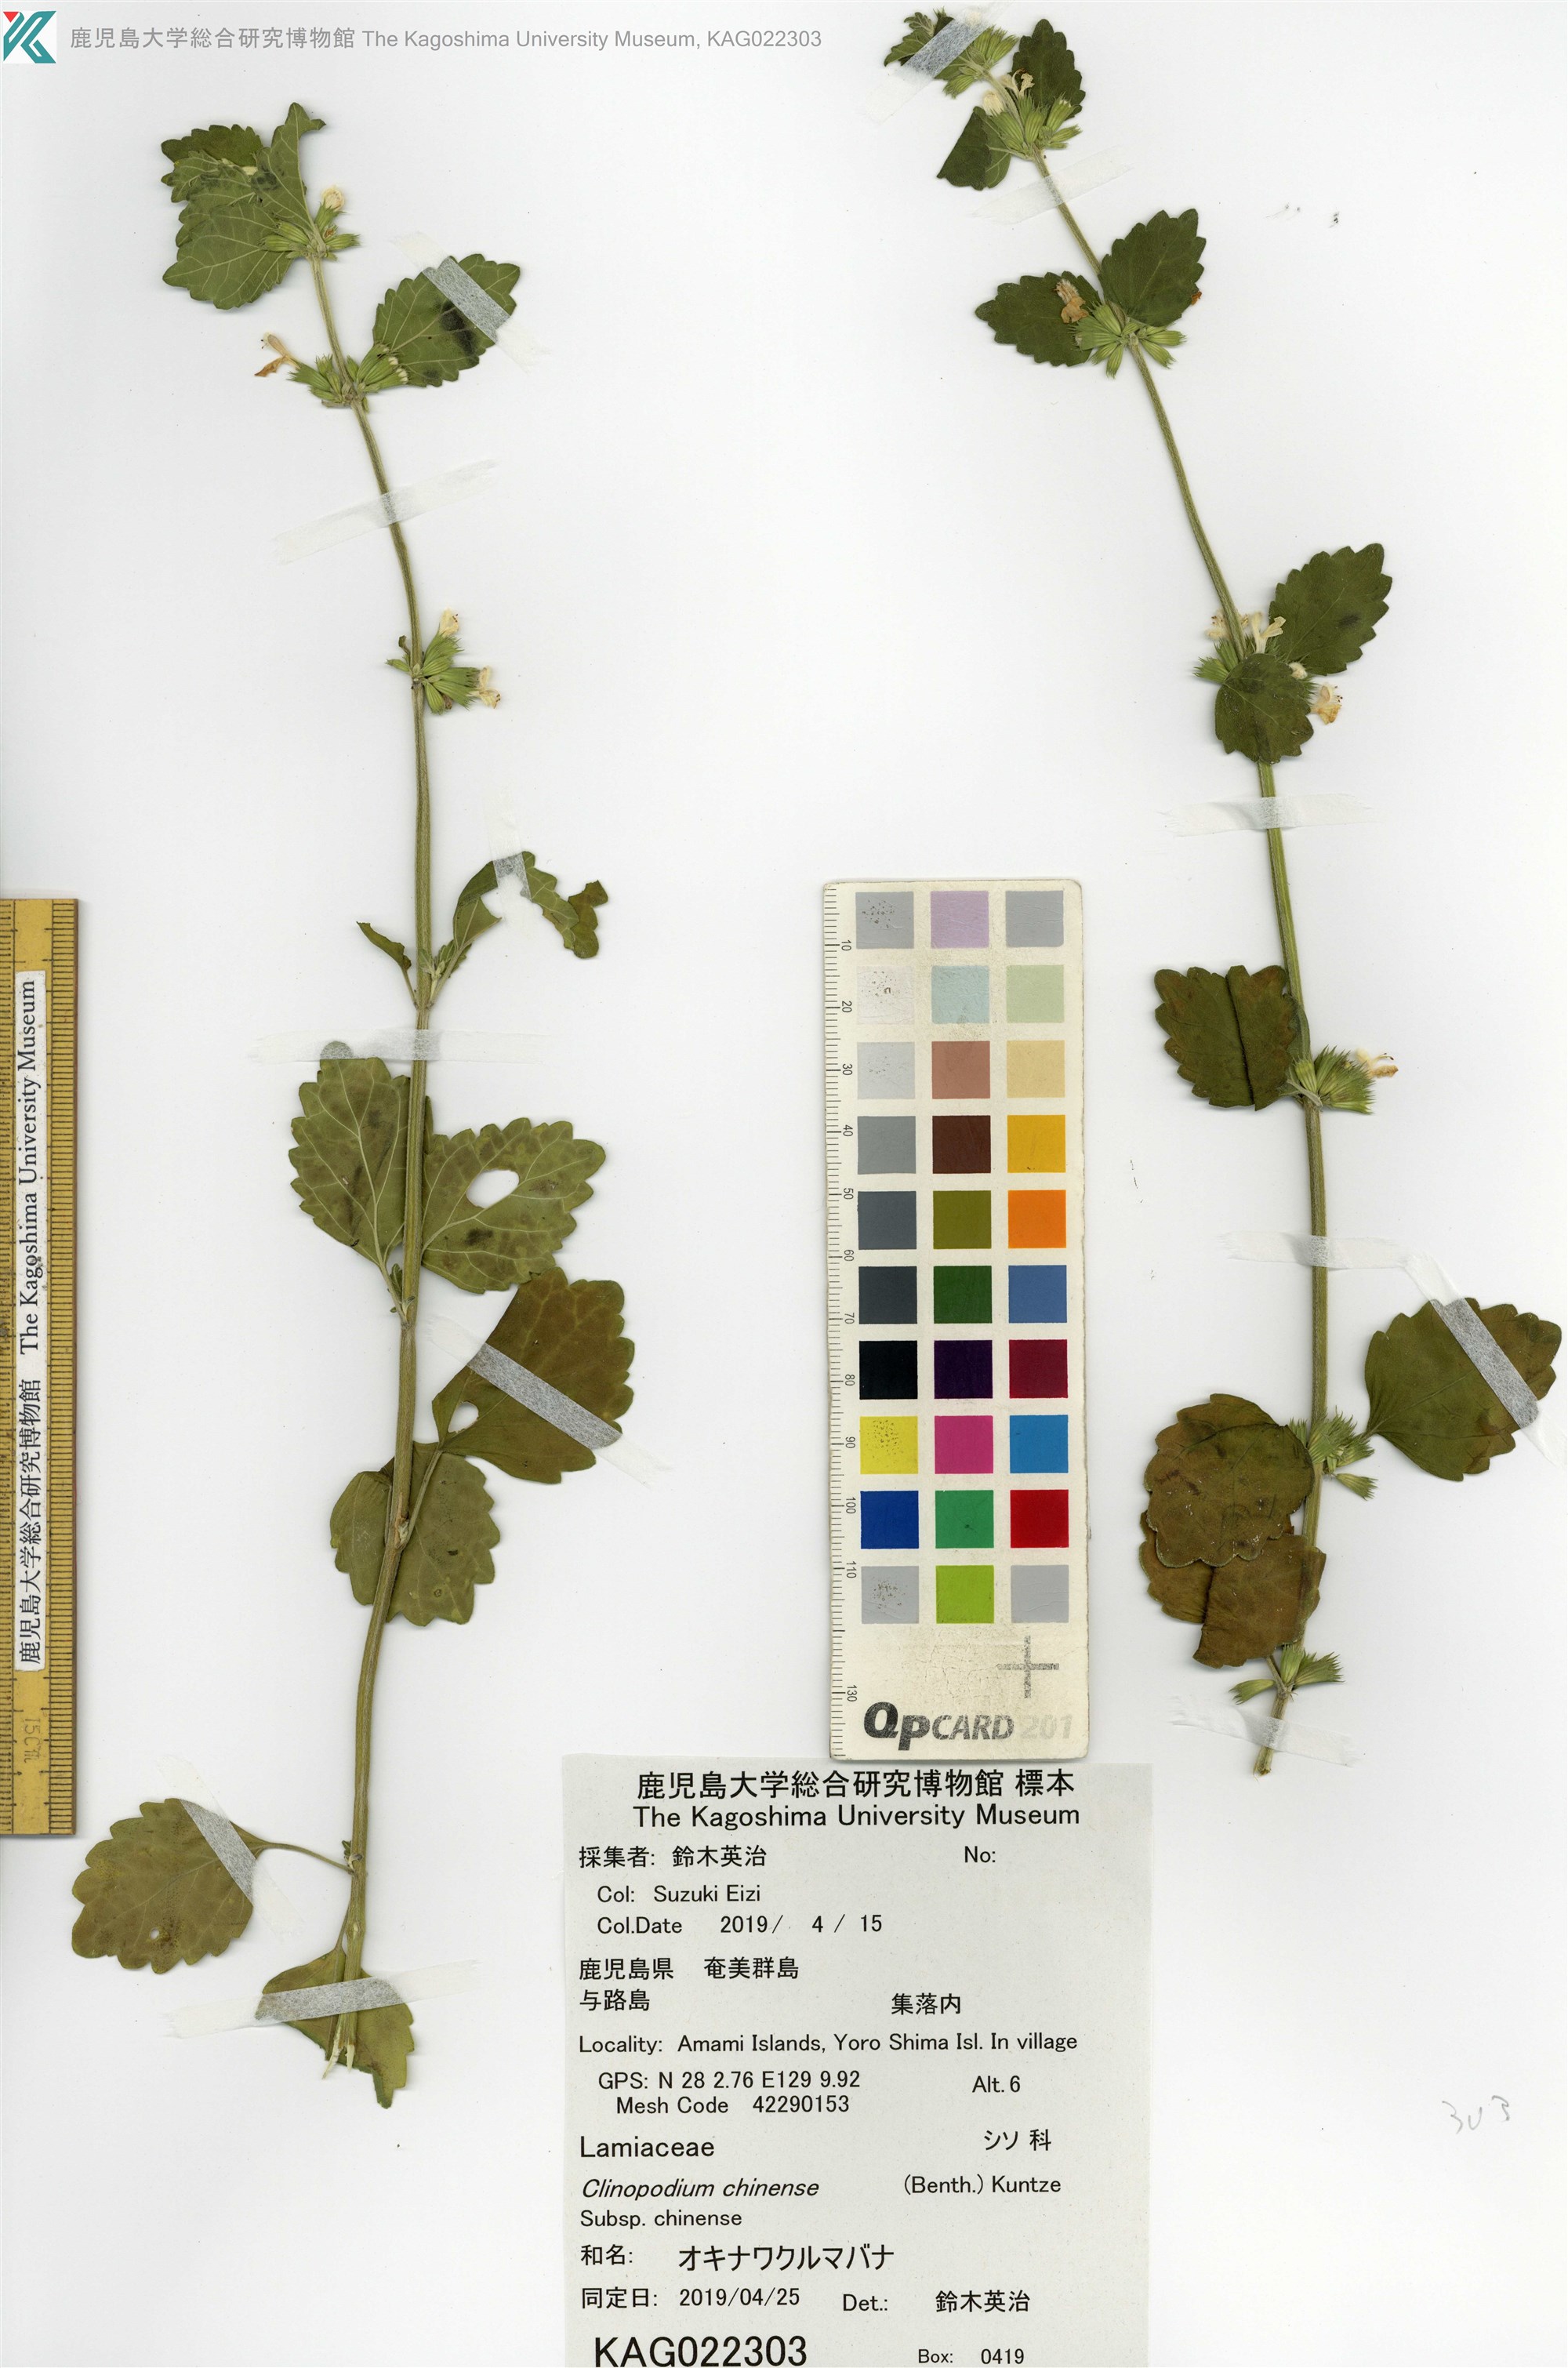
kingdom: Plantae
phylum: Tracheophyta
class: Magnoliopsida
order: Lamiales
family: Lamiaceae
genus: Leucas
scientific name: Leucas chinensis
